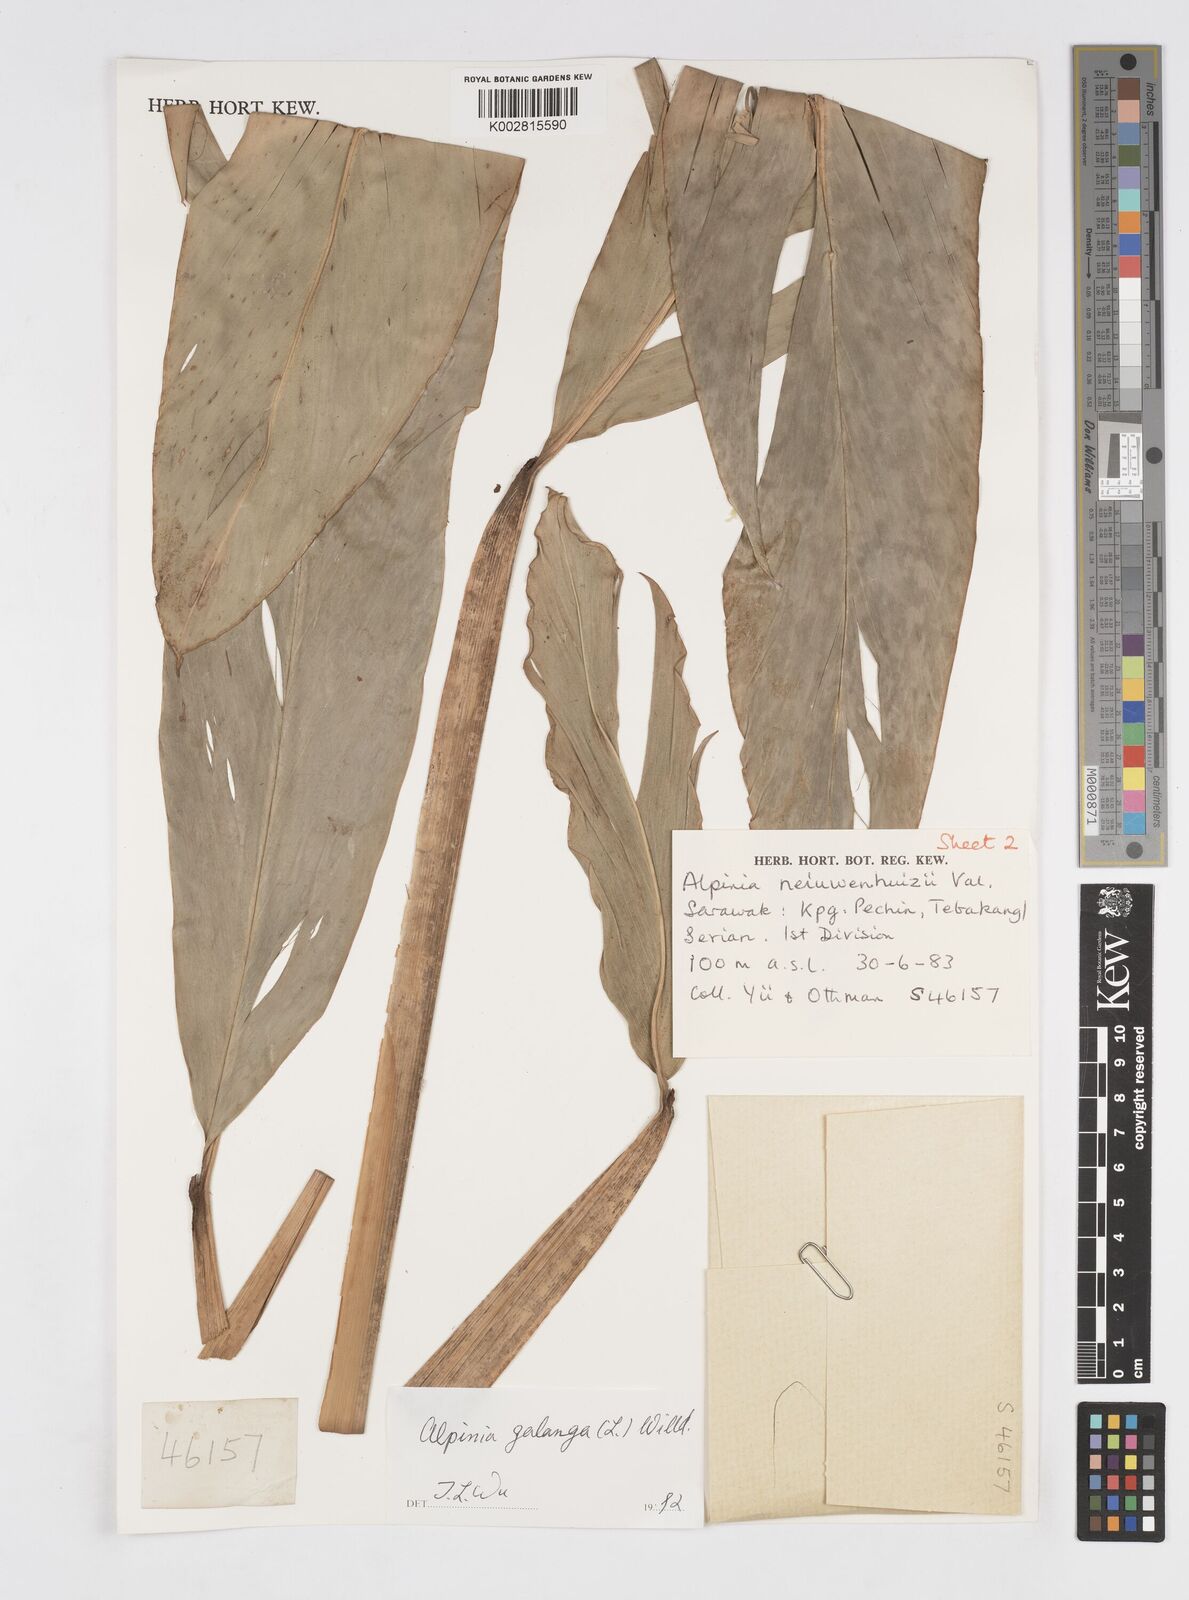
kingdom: Plantae
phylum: Tracheophyta
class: Liliopsida
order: Zingiberales
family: Zingiberaceae
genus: Alpinia
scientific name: Alpinia galanga
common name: Siamese-ginger
